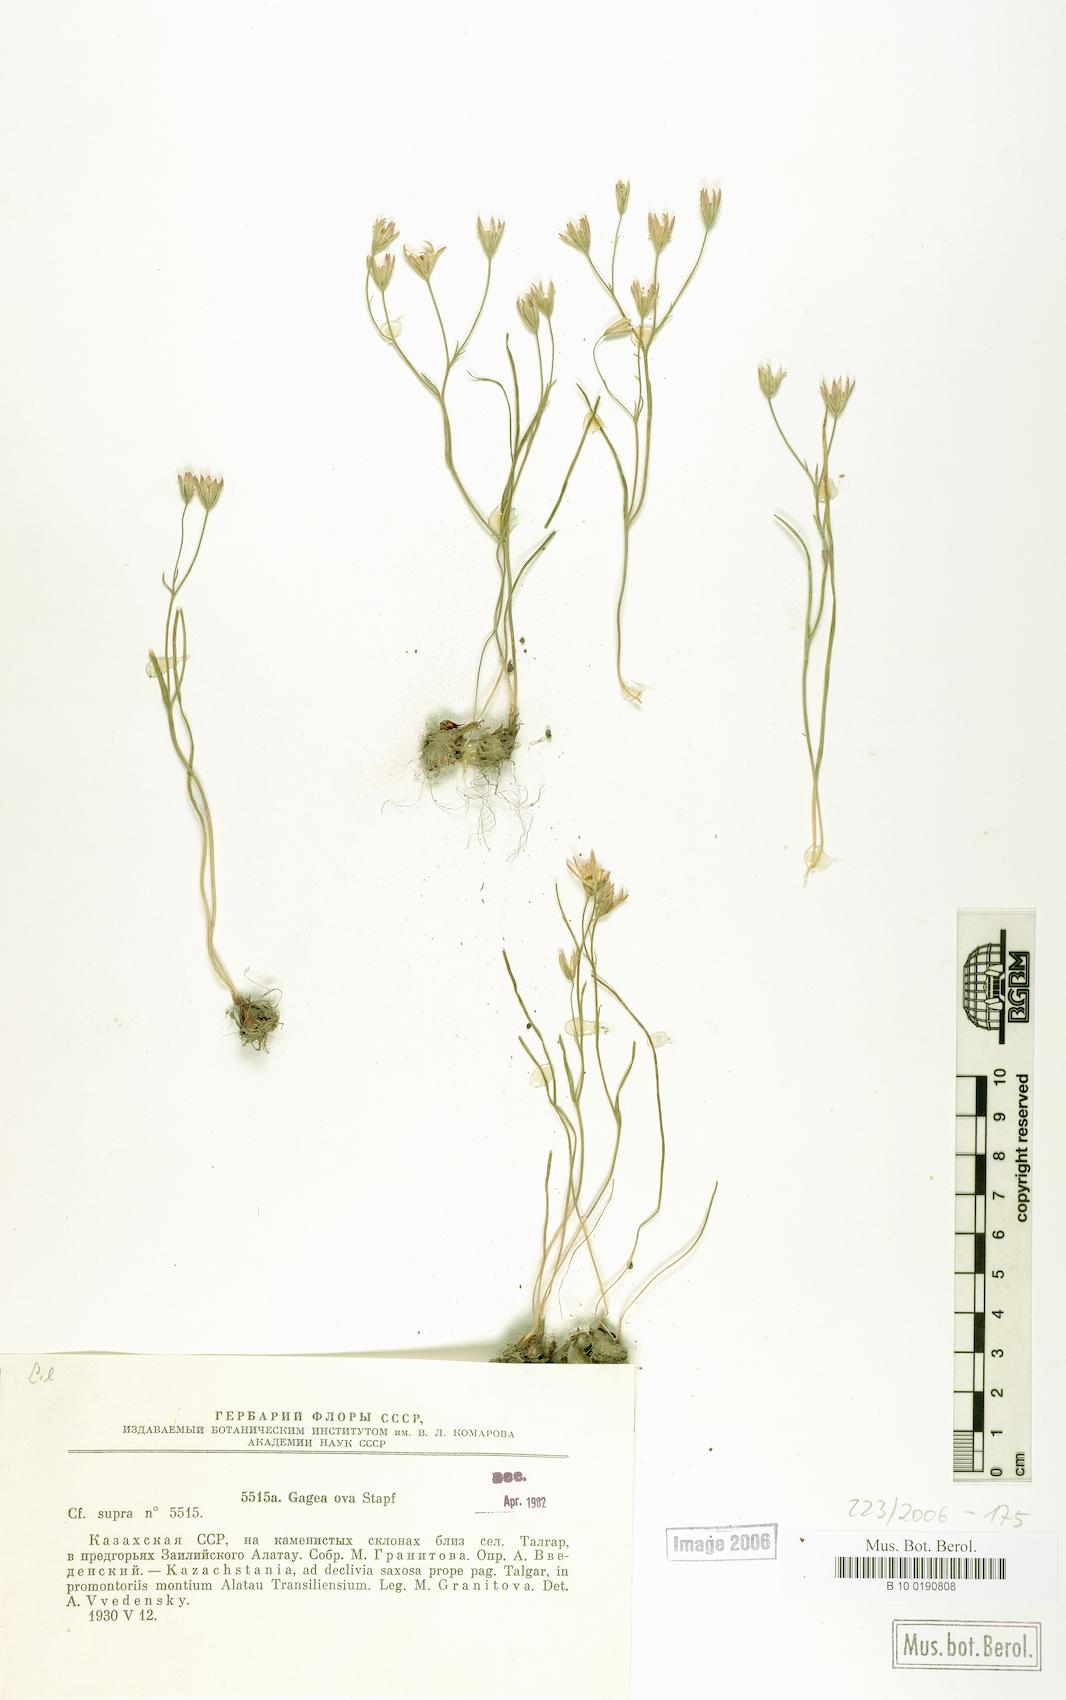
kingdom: Plantae
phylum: Tracheophyta
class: Liliopsida
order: Liliales
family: Liliaceae
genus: Gagea
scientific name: Gagea kunawurensis
